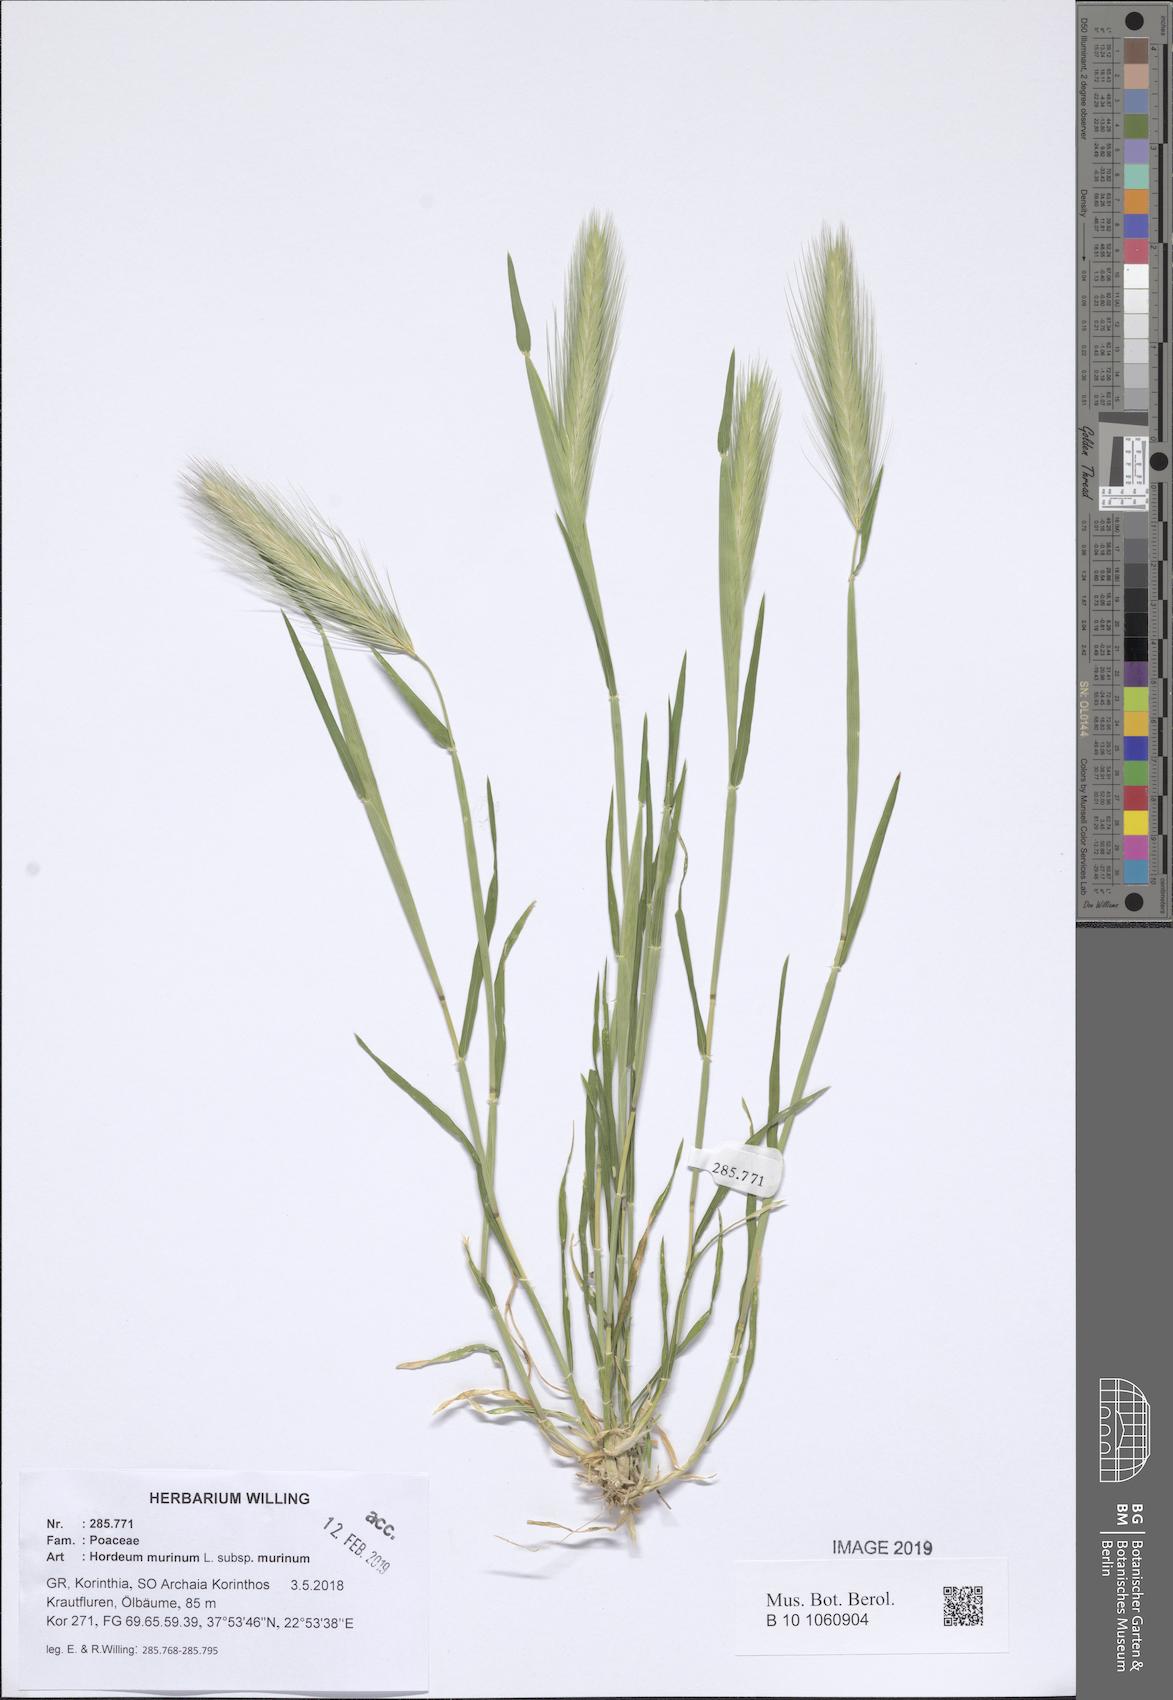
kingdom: Plantae
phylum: Tracheophyta
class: Liliopsida
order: Poales
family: Poaceae
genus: Hordeum
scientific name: Hordeum murinum
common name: Wall barley
